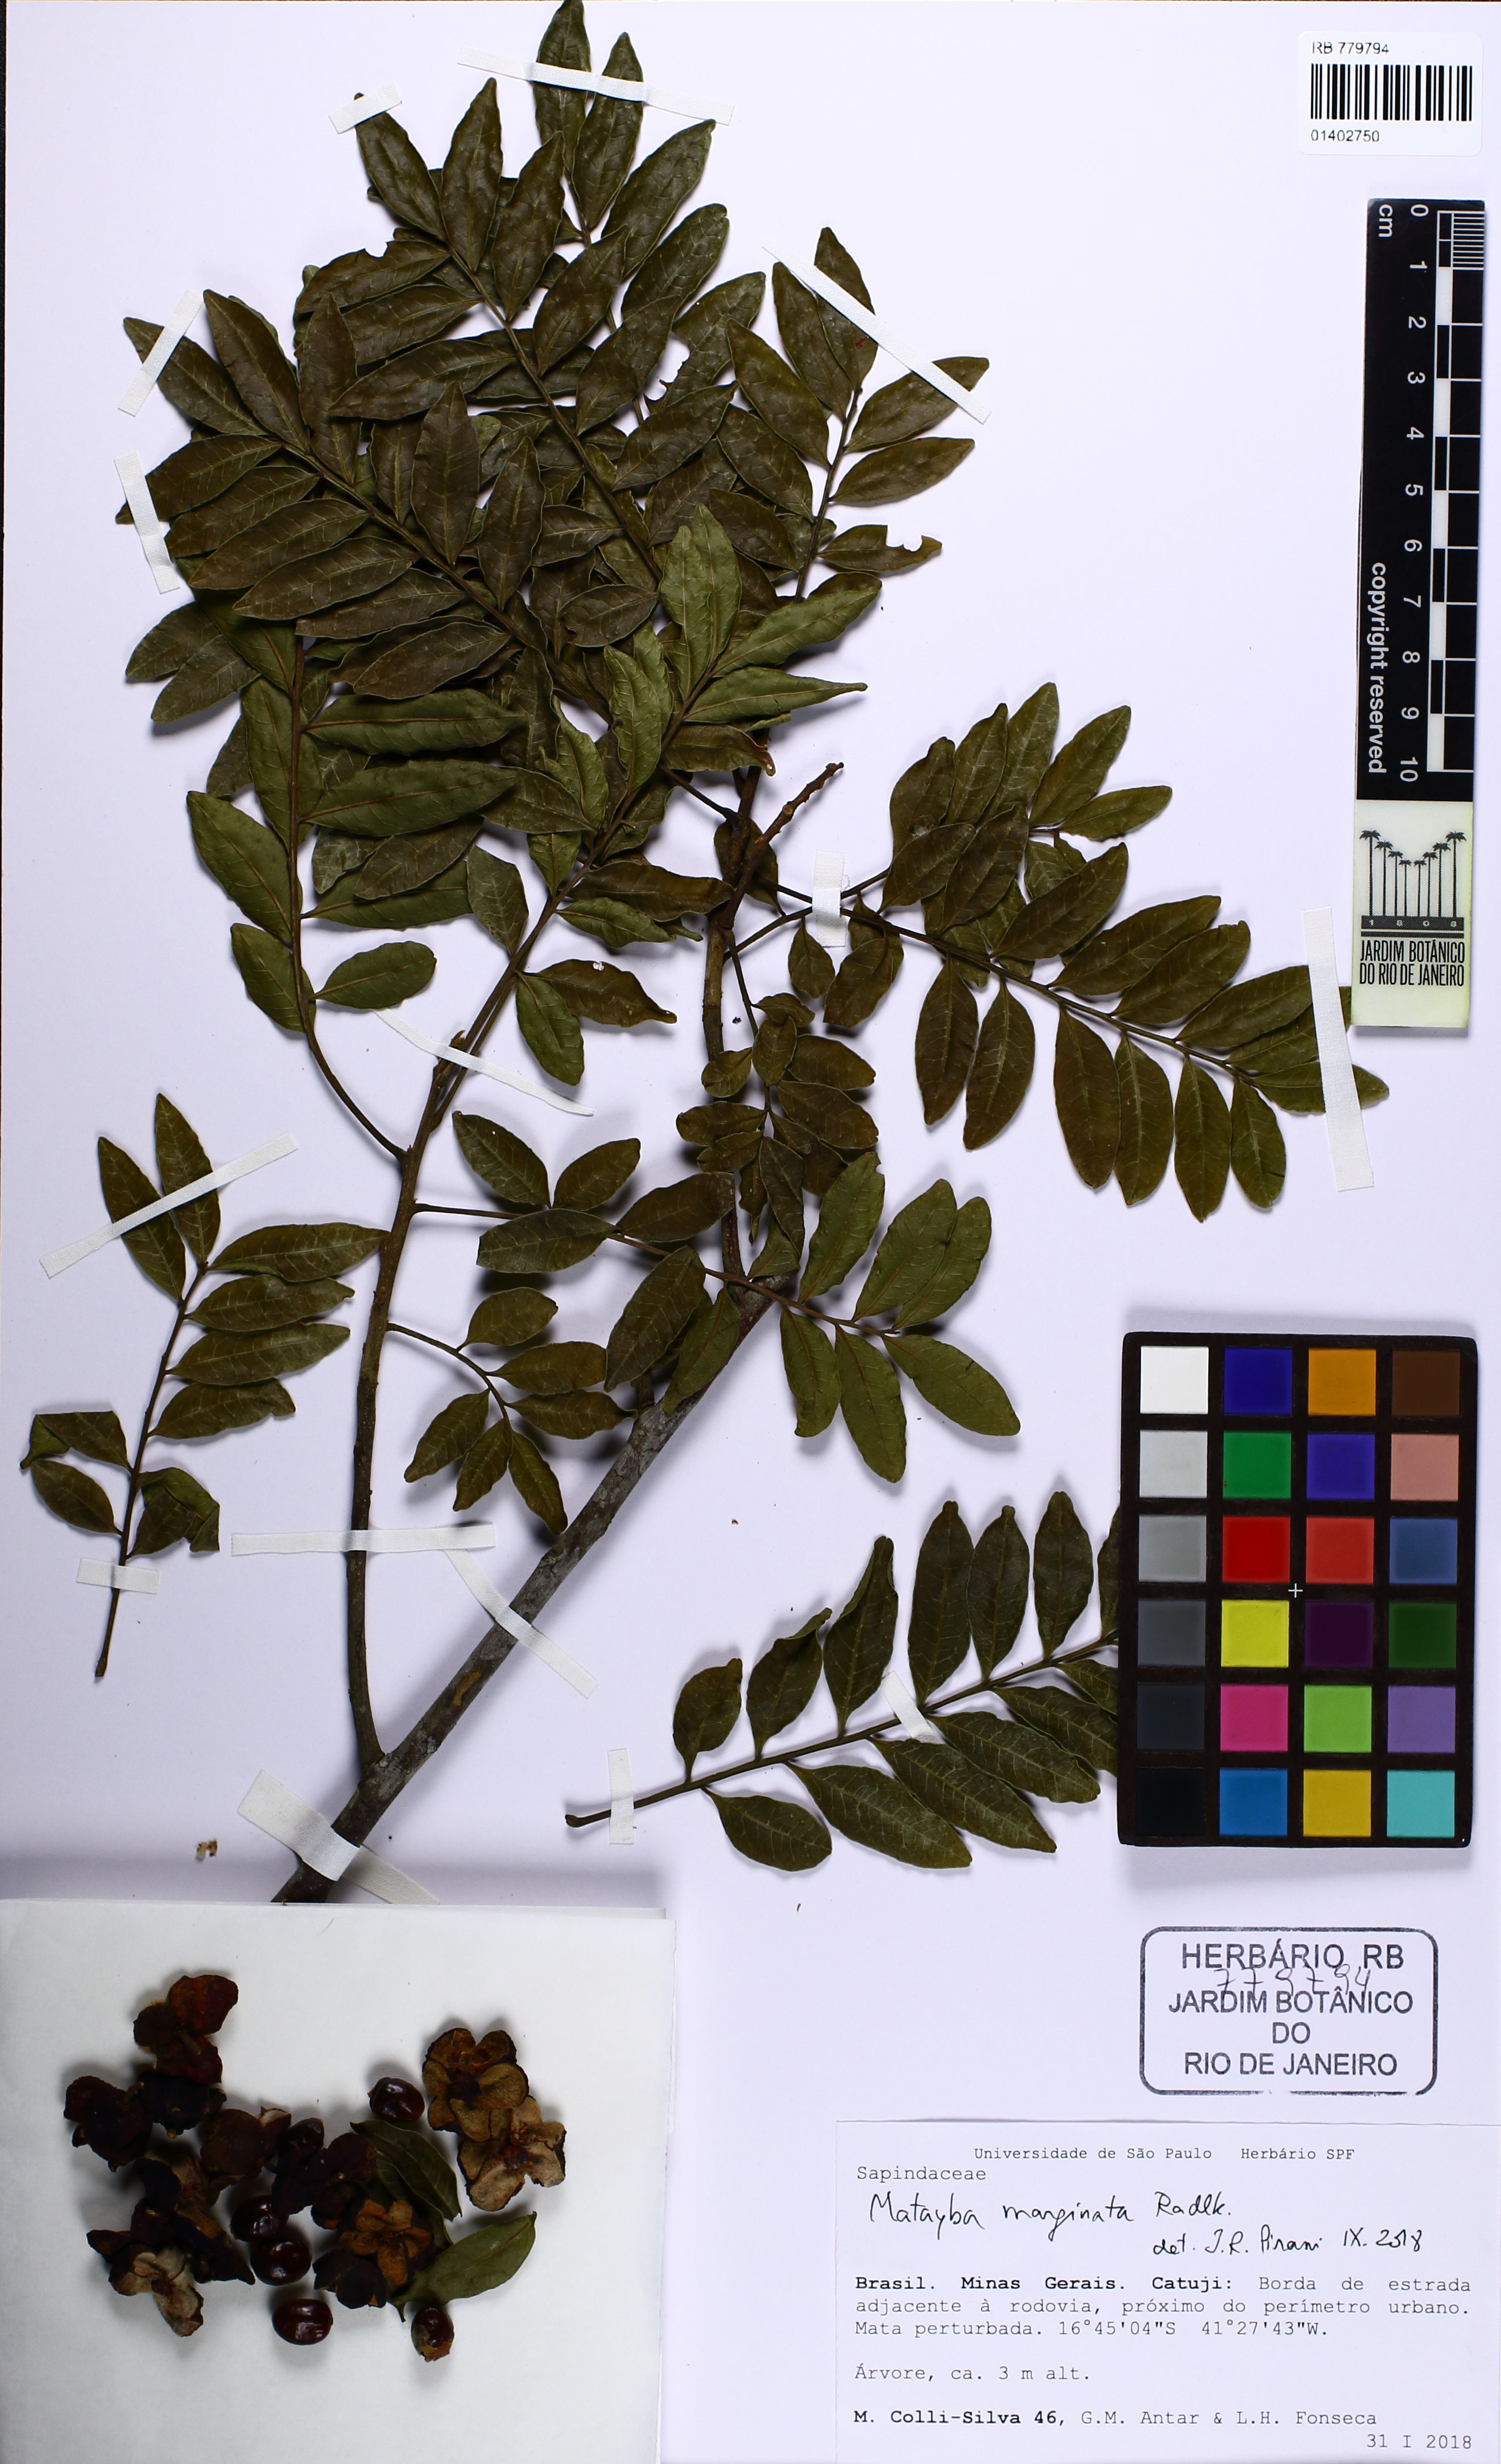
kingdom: Plantae
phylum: Tracheophyta
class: Magnoliopsida
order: Sapindales
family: Sapindaceae
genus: Matayba
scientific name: Matayba marginata
